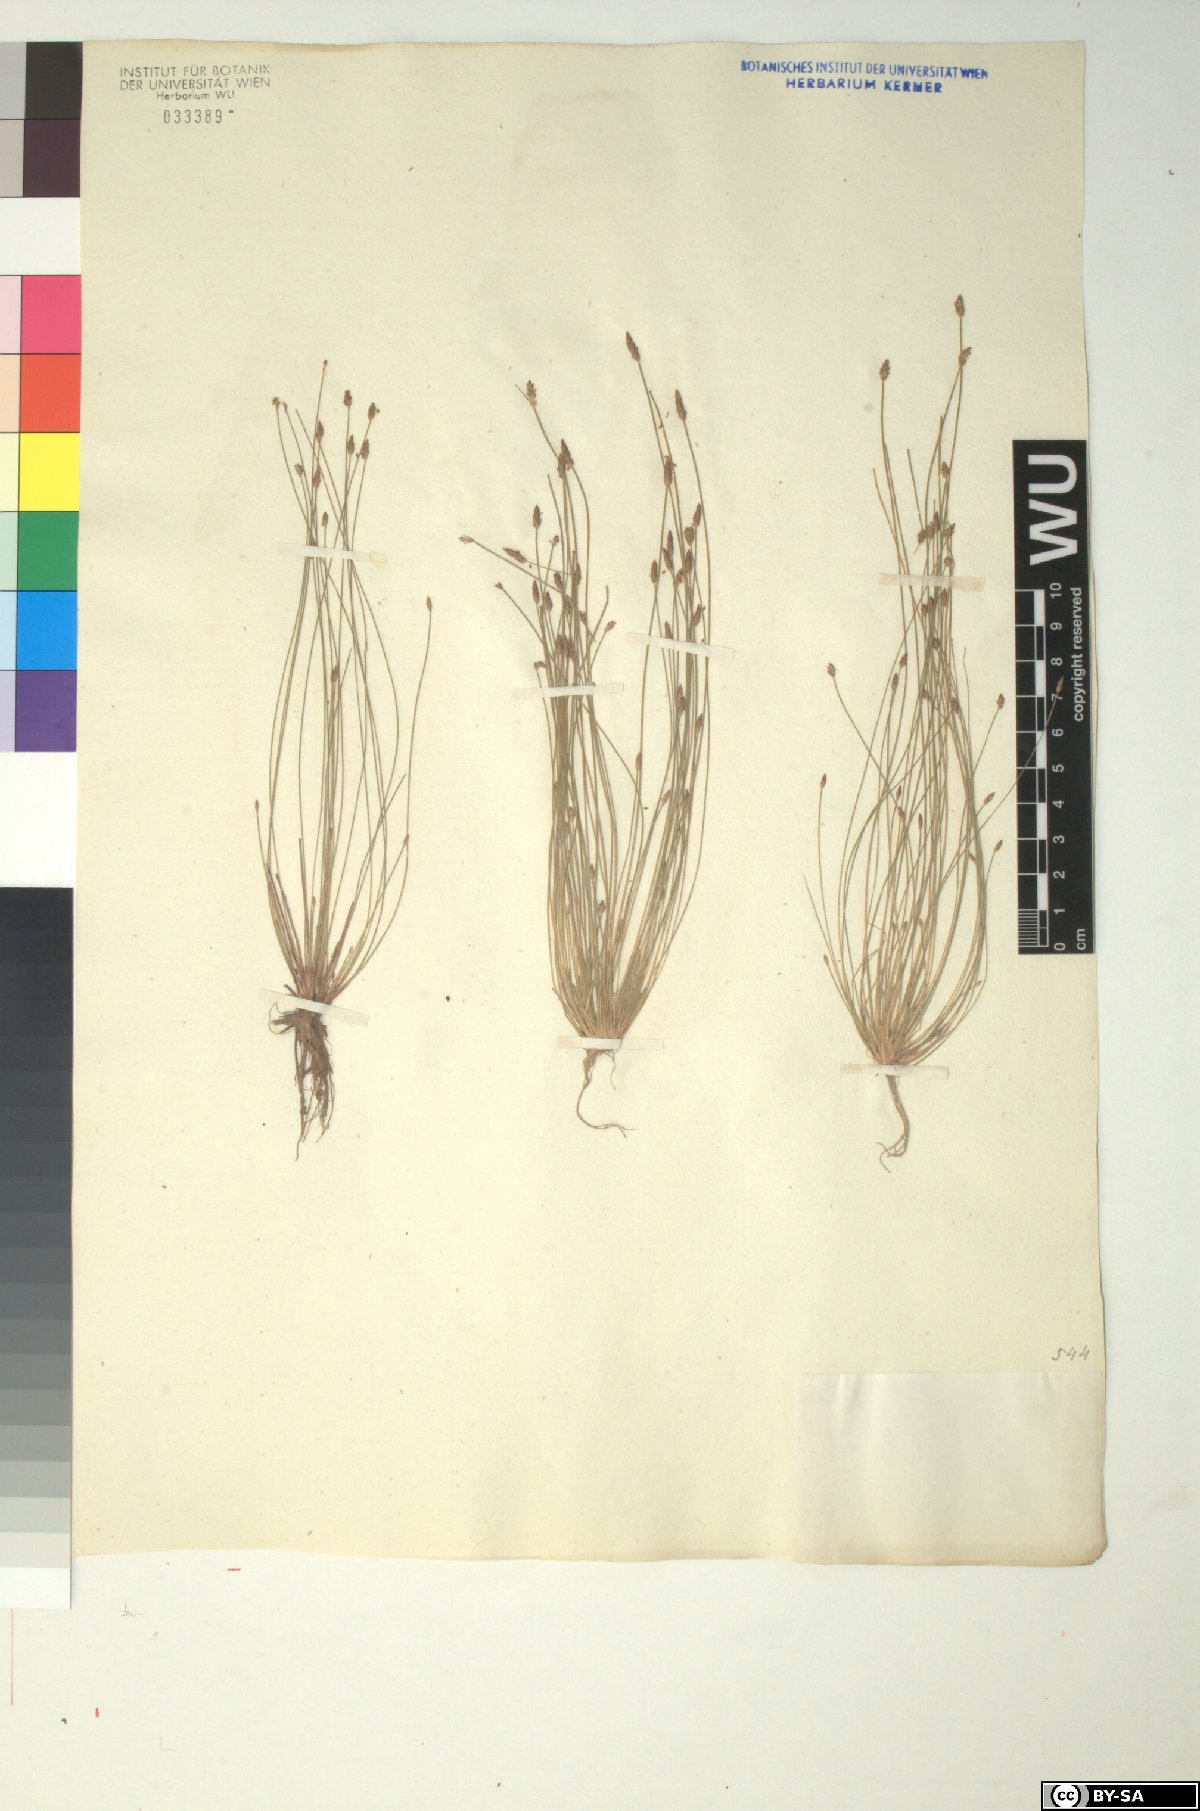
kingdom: Plantae
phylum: Tracheophyta
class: Liliopsida
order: Poales
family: Cyperaceae
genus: Eleocharis
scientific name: Eleocharis carniolica
